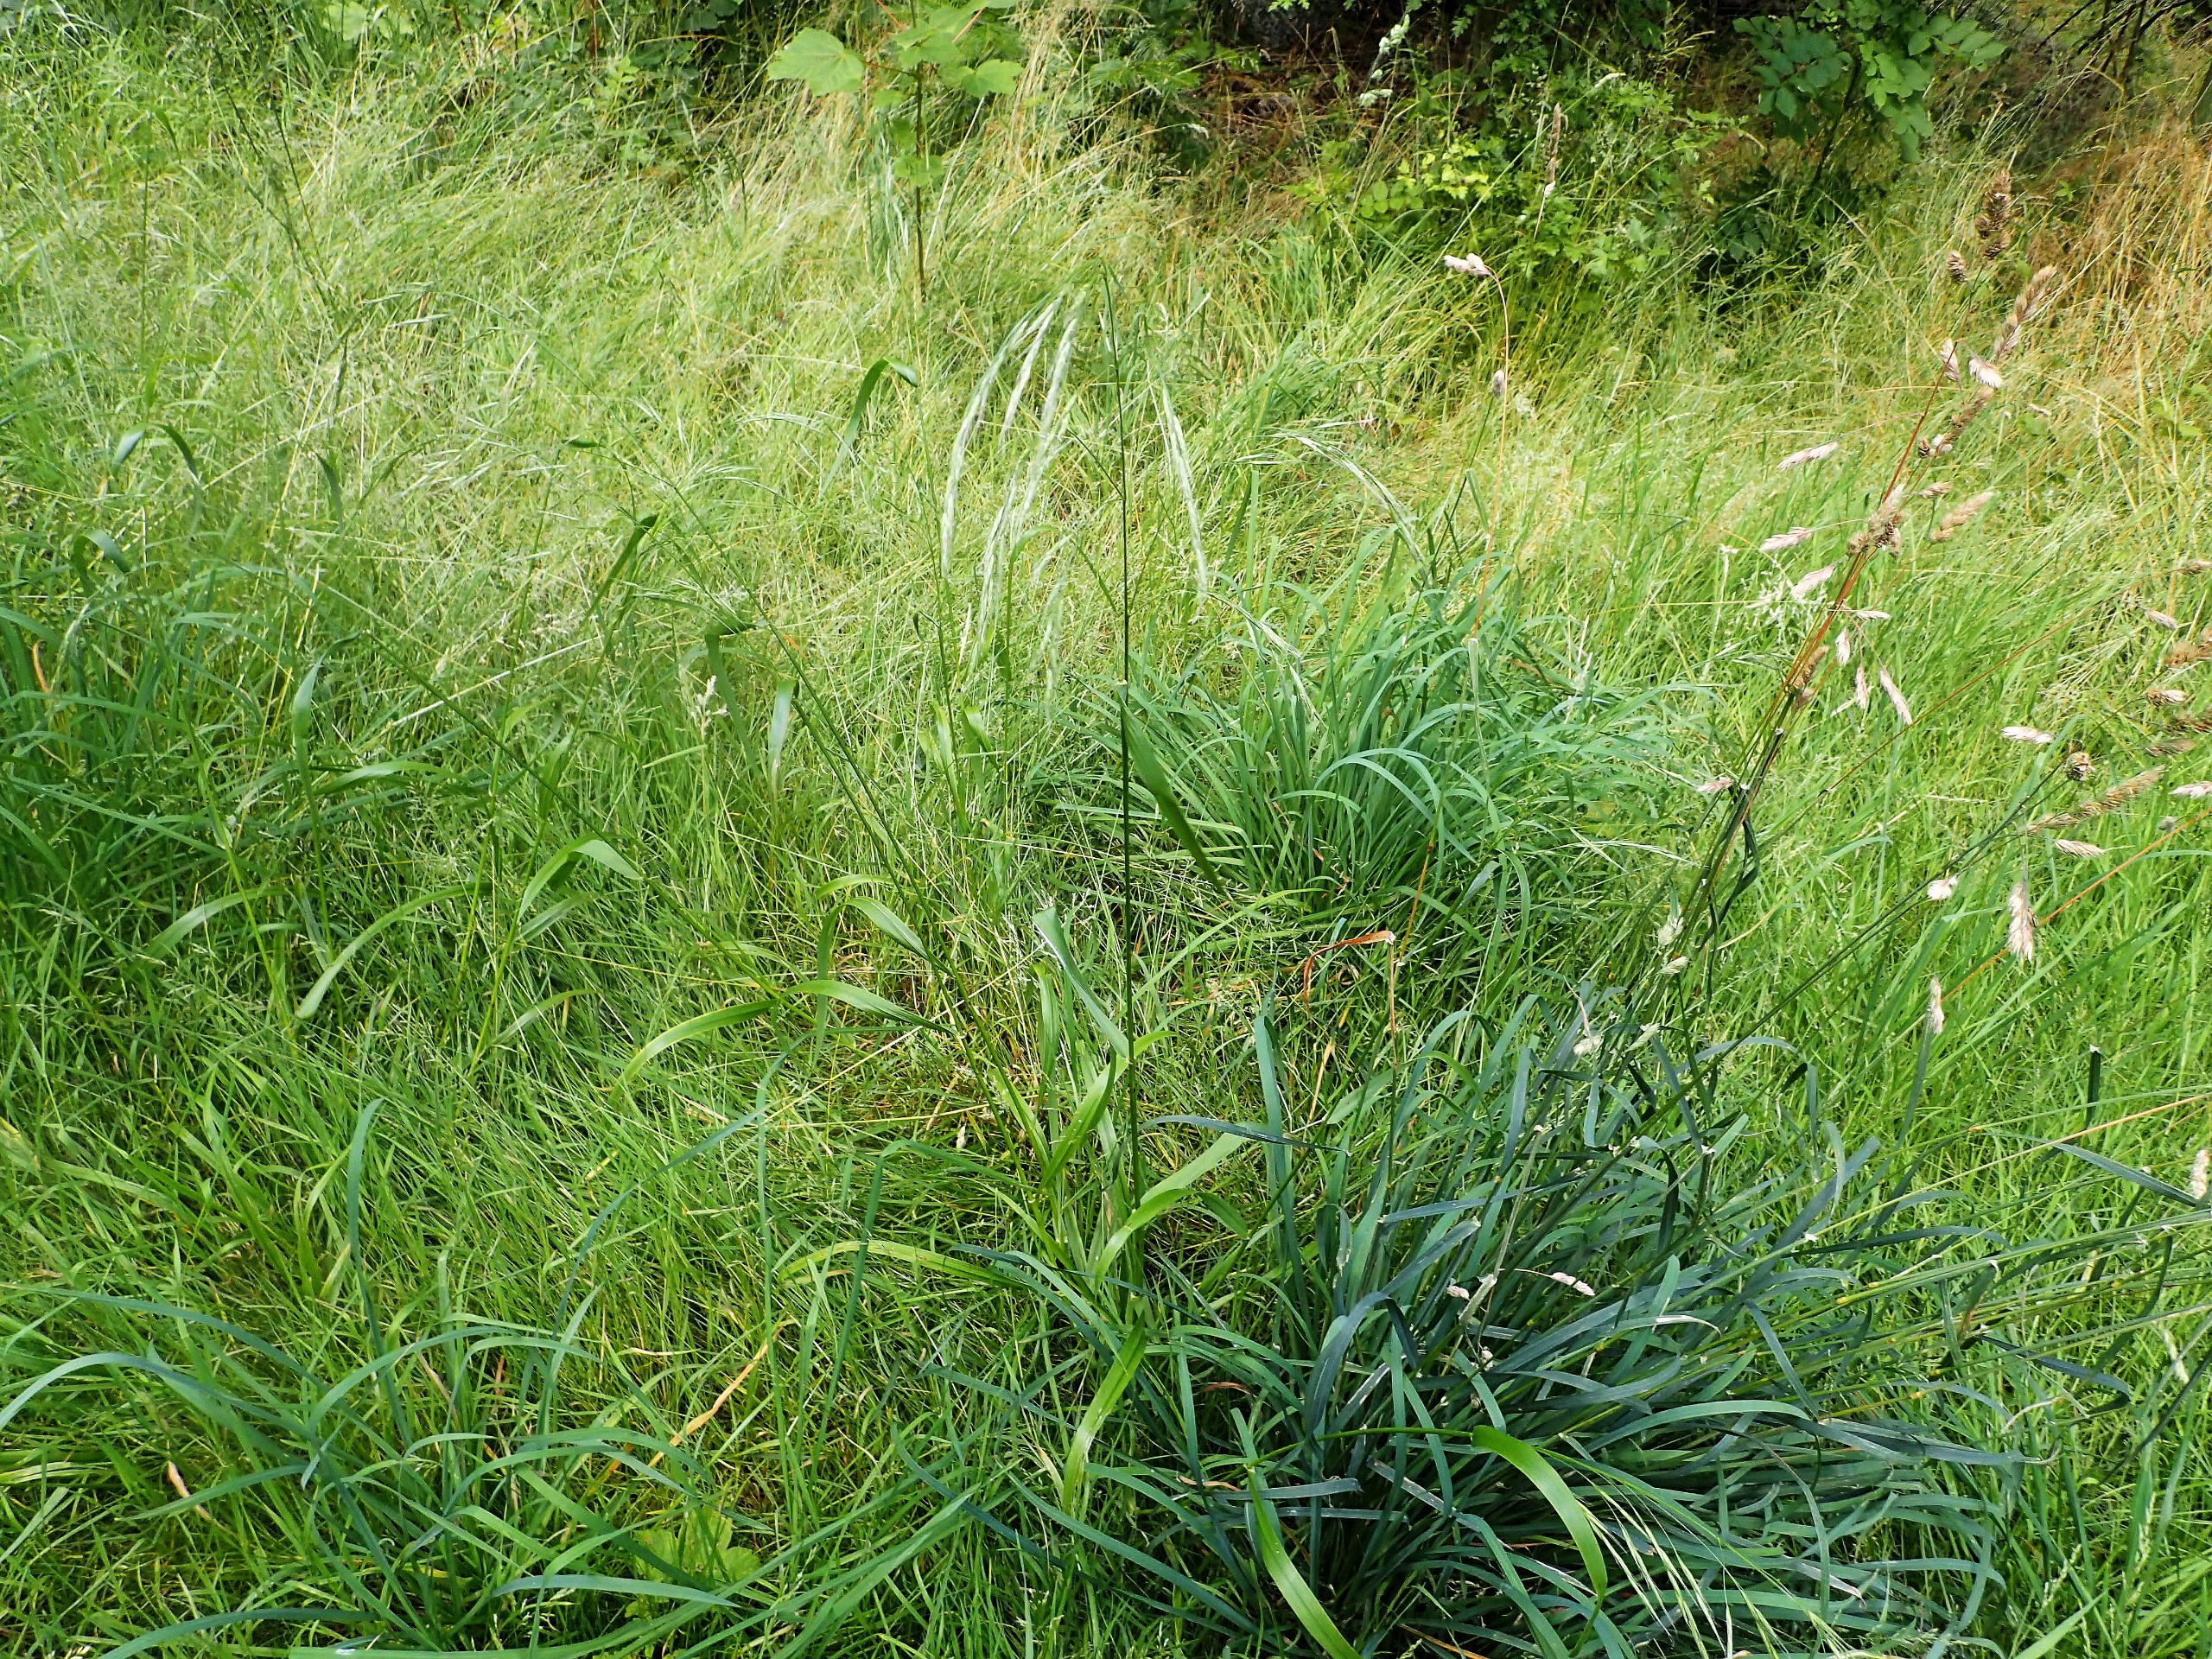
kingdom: Plantae
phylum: Tracheophyta
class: Liliopsida
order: Poales
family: Poaceae
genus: Lolium
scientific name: Lolium giganteum
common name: Kæmpe-svingel
